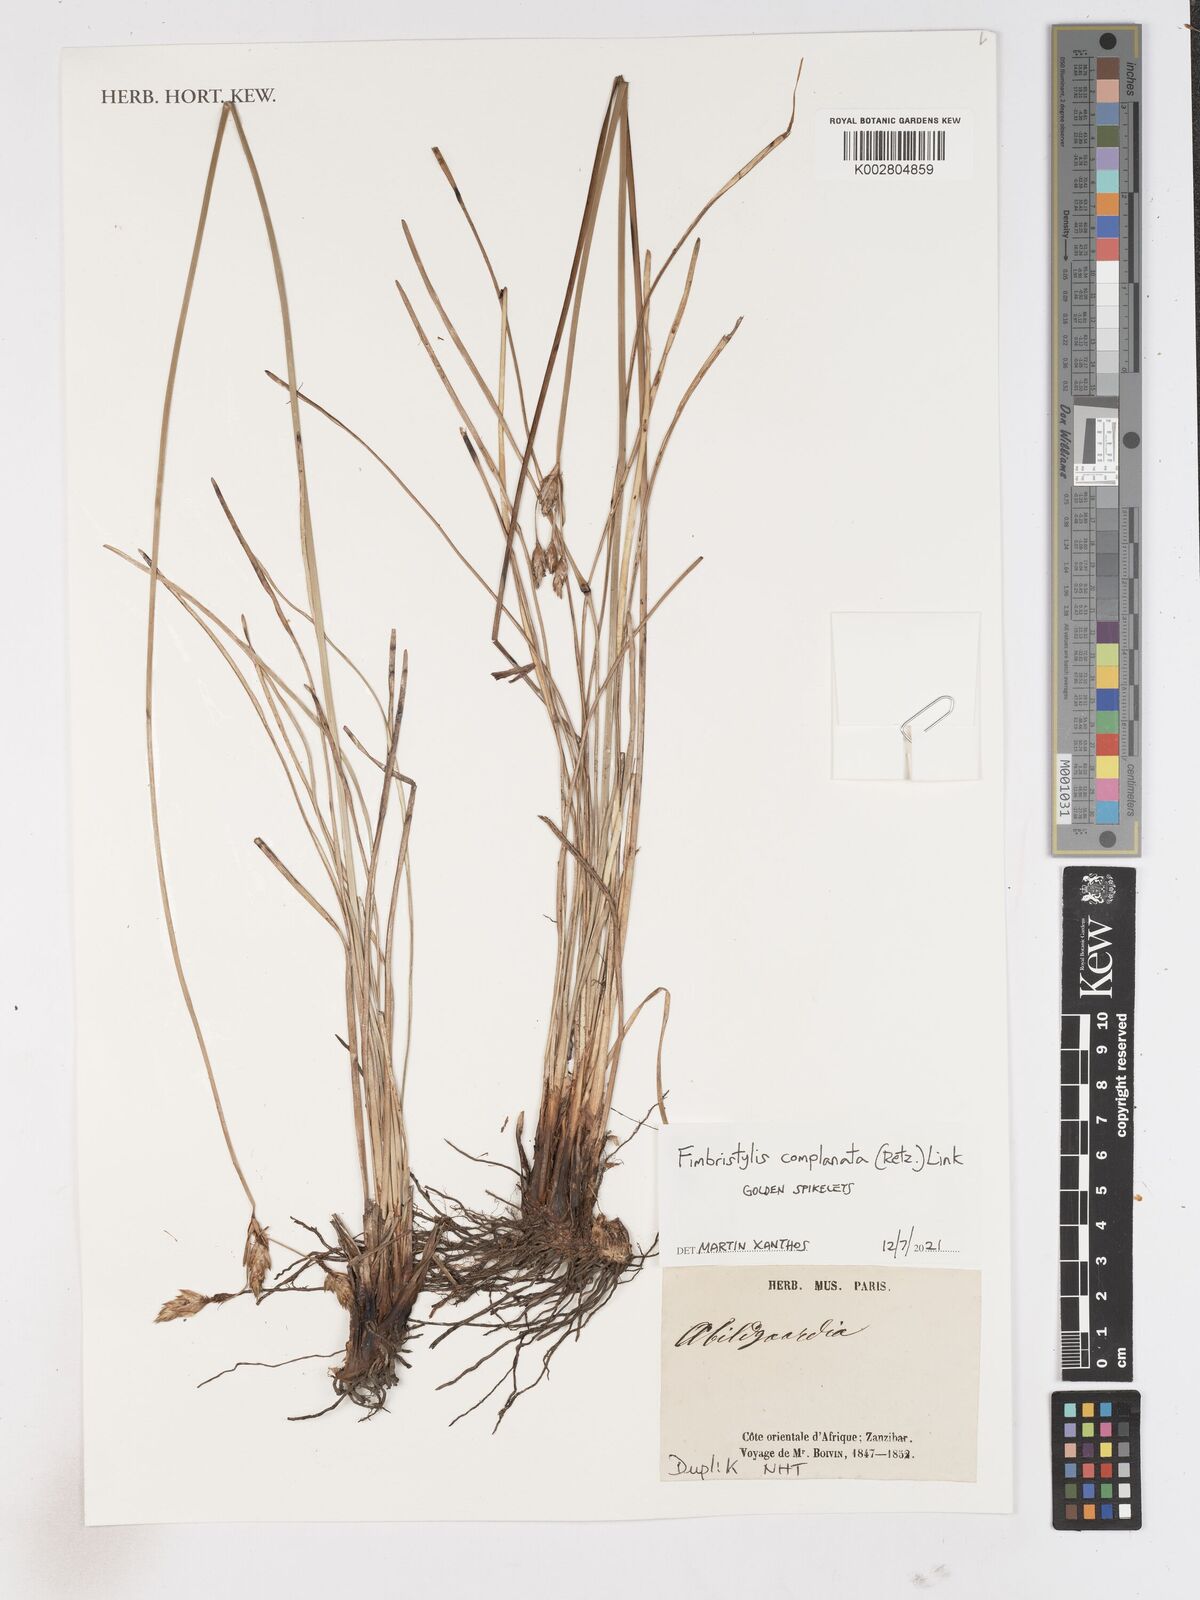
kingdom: Plantae
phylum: Tracheophyta
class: Liliopsida
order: Poales
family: Cyperaceae
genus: Fimbristylis
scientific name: Fimbristylis complanata
